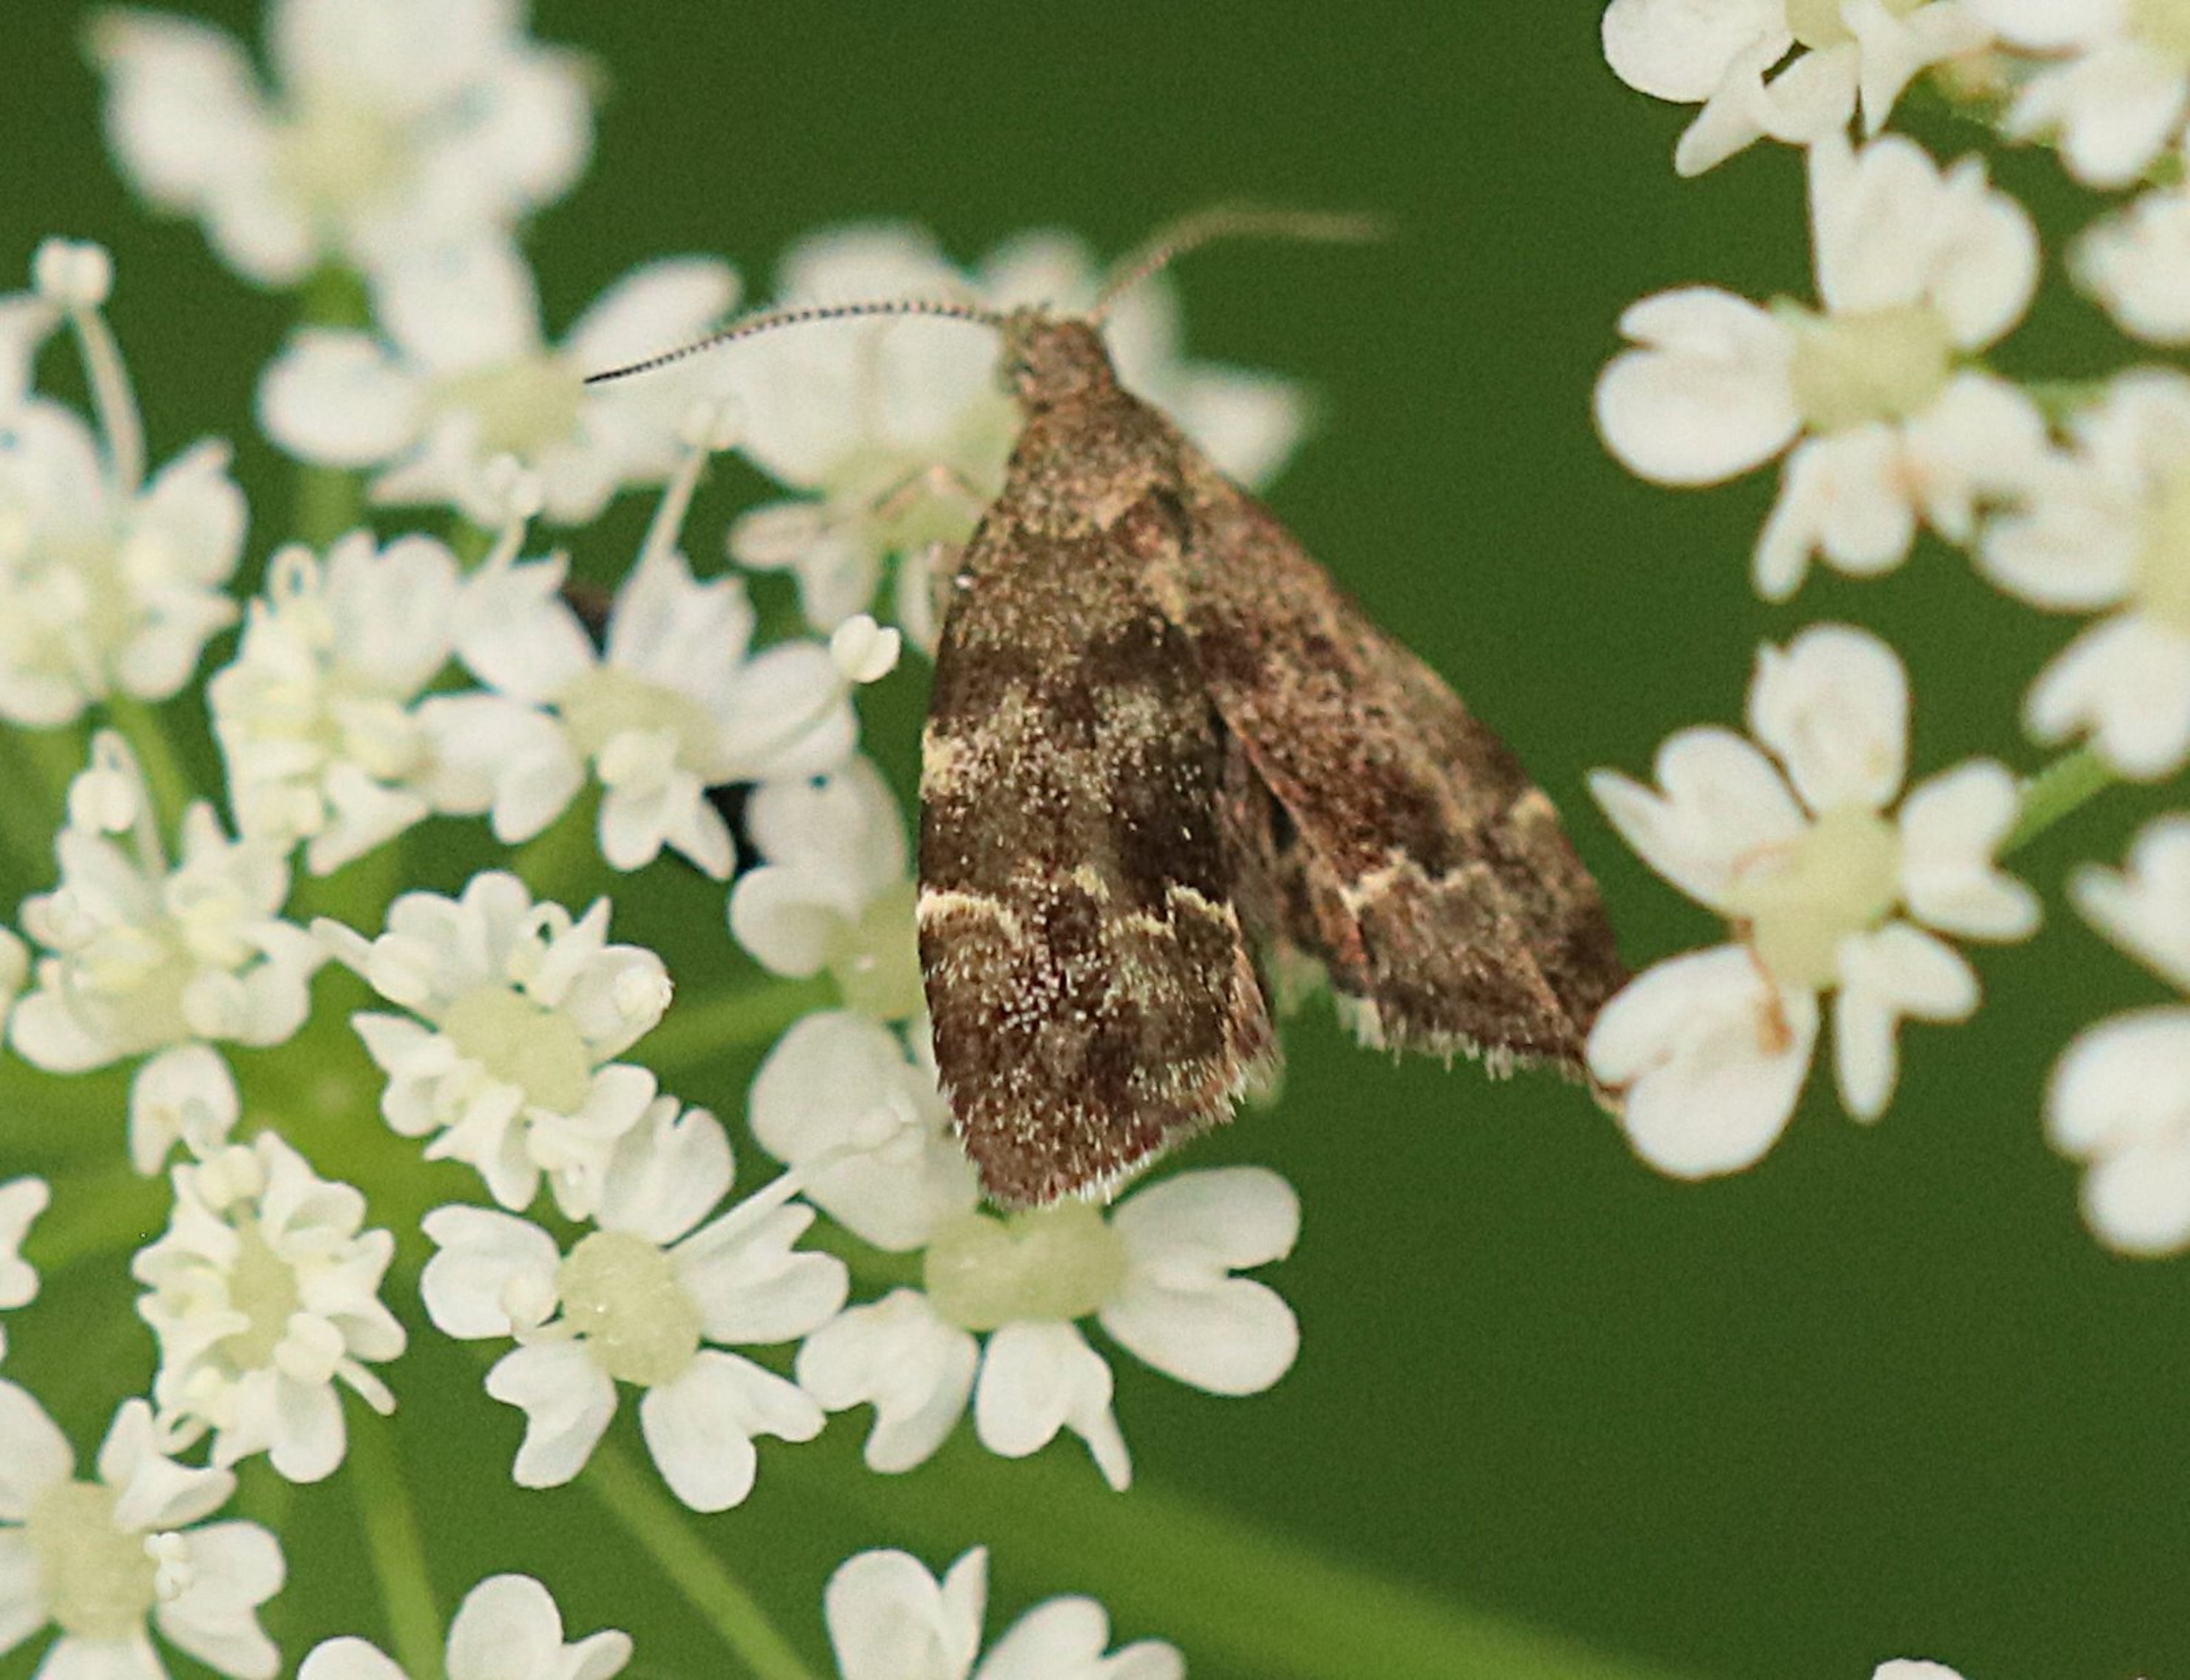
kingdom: Animalia
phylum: Arthropoda
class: Insecta
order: Lepidoptera
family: Choreutidae
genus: Anthophila
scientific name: Anthophila fabriciana
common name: Bredvinget nældevikler
